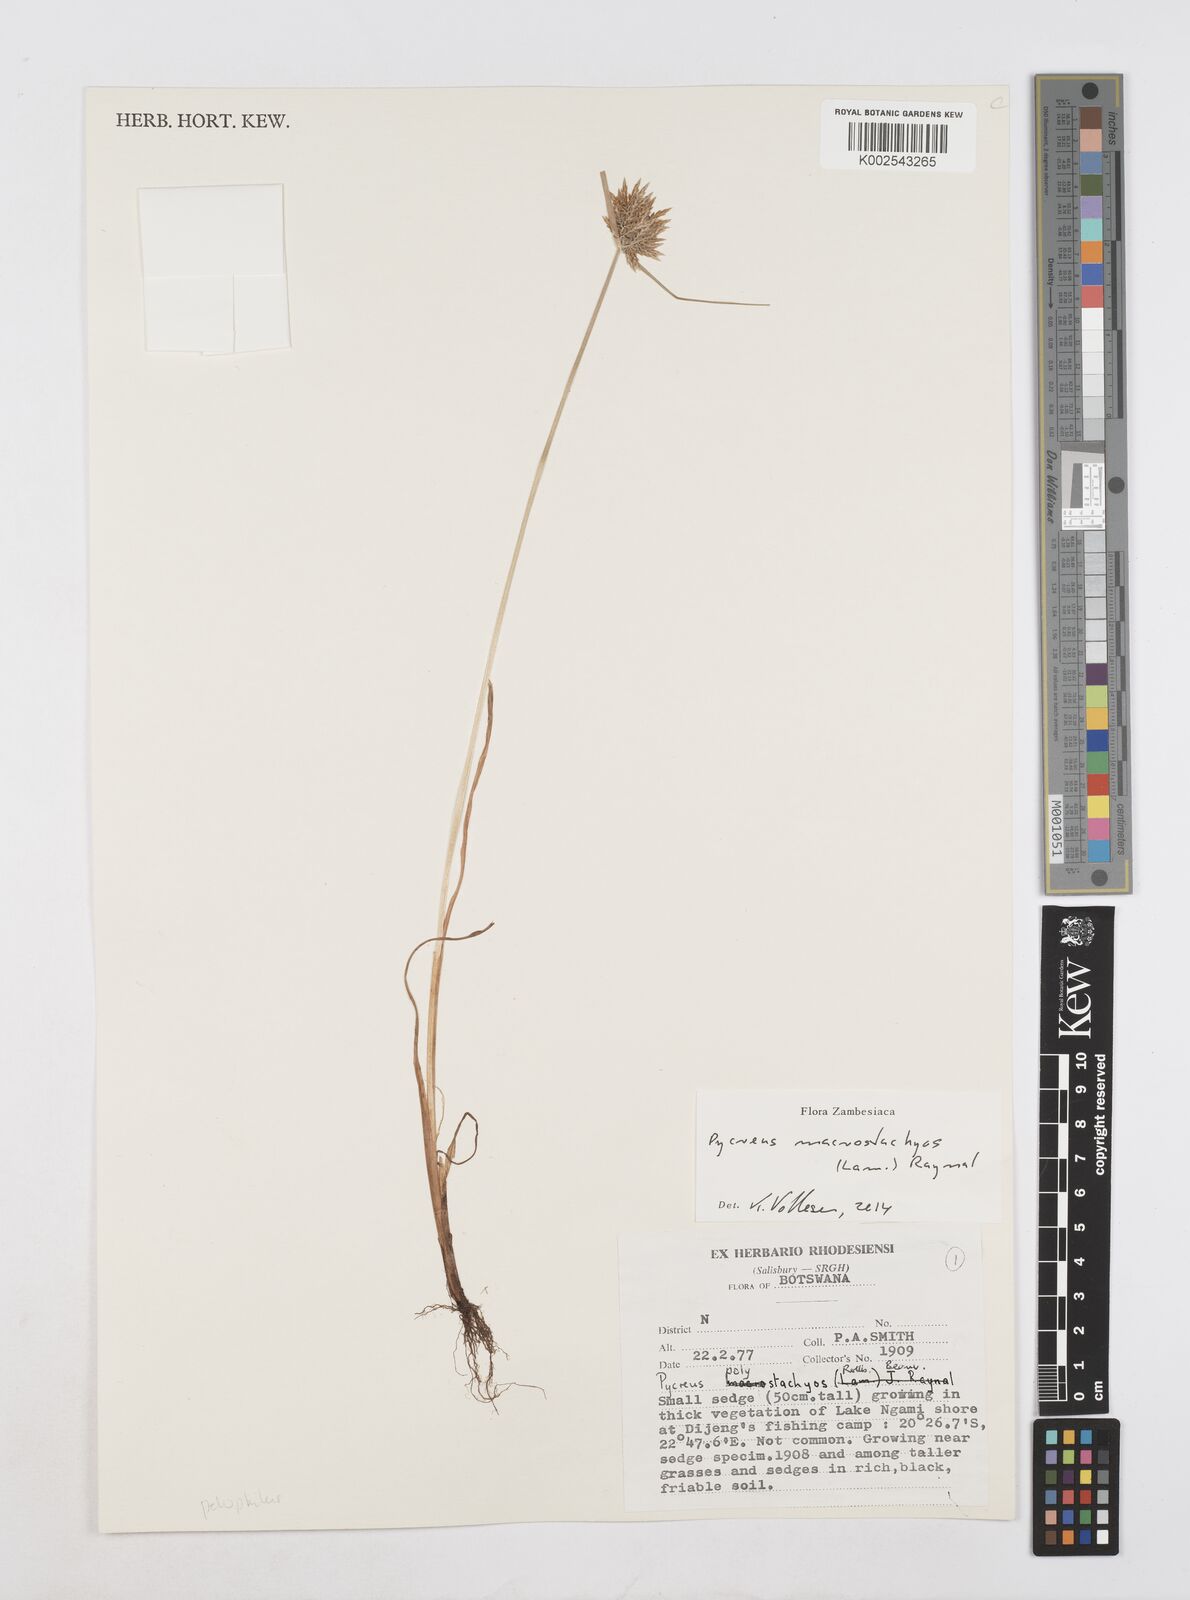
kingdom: Plantae
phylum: Tracheophyta
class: Liliopsida
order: Poales
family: Cyperaceae
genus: Cyperus
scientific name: Cyperus macrostachyos
